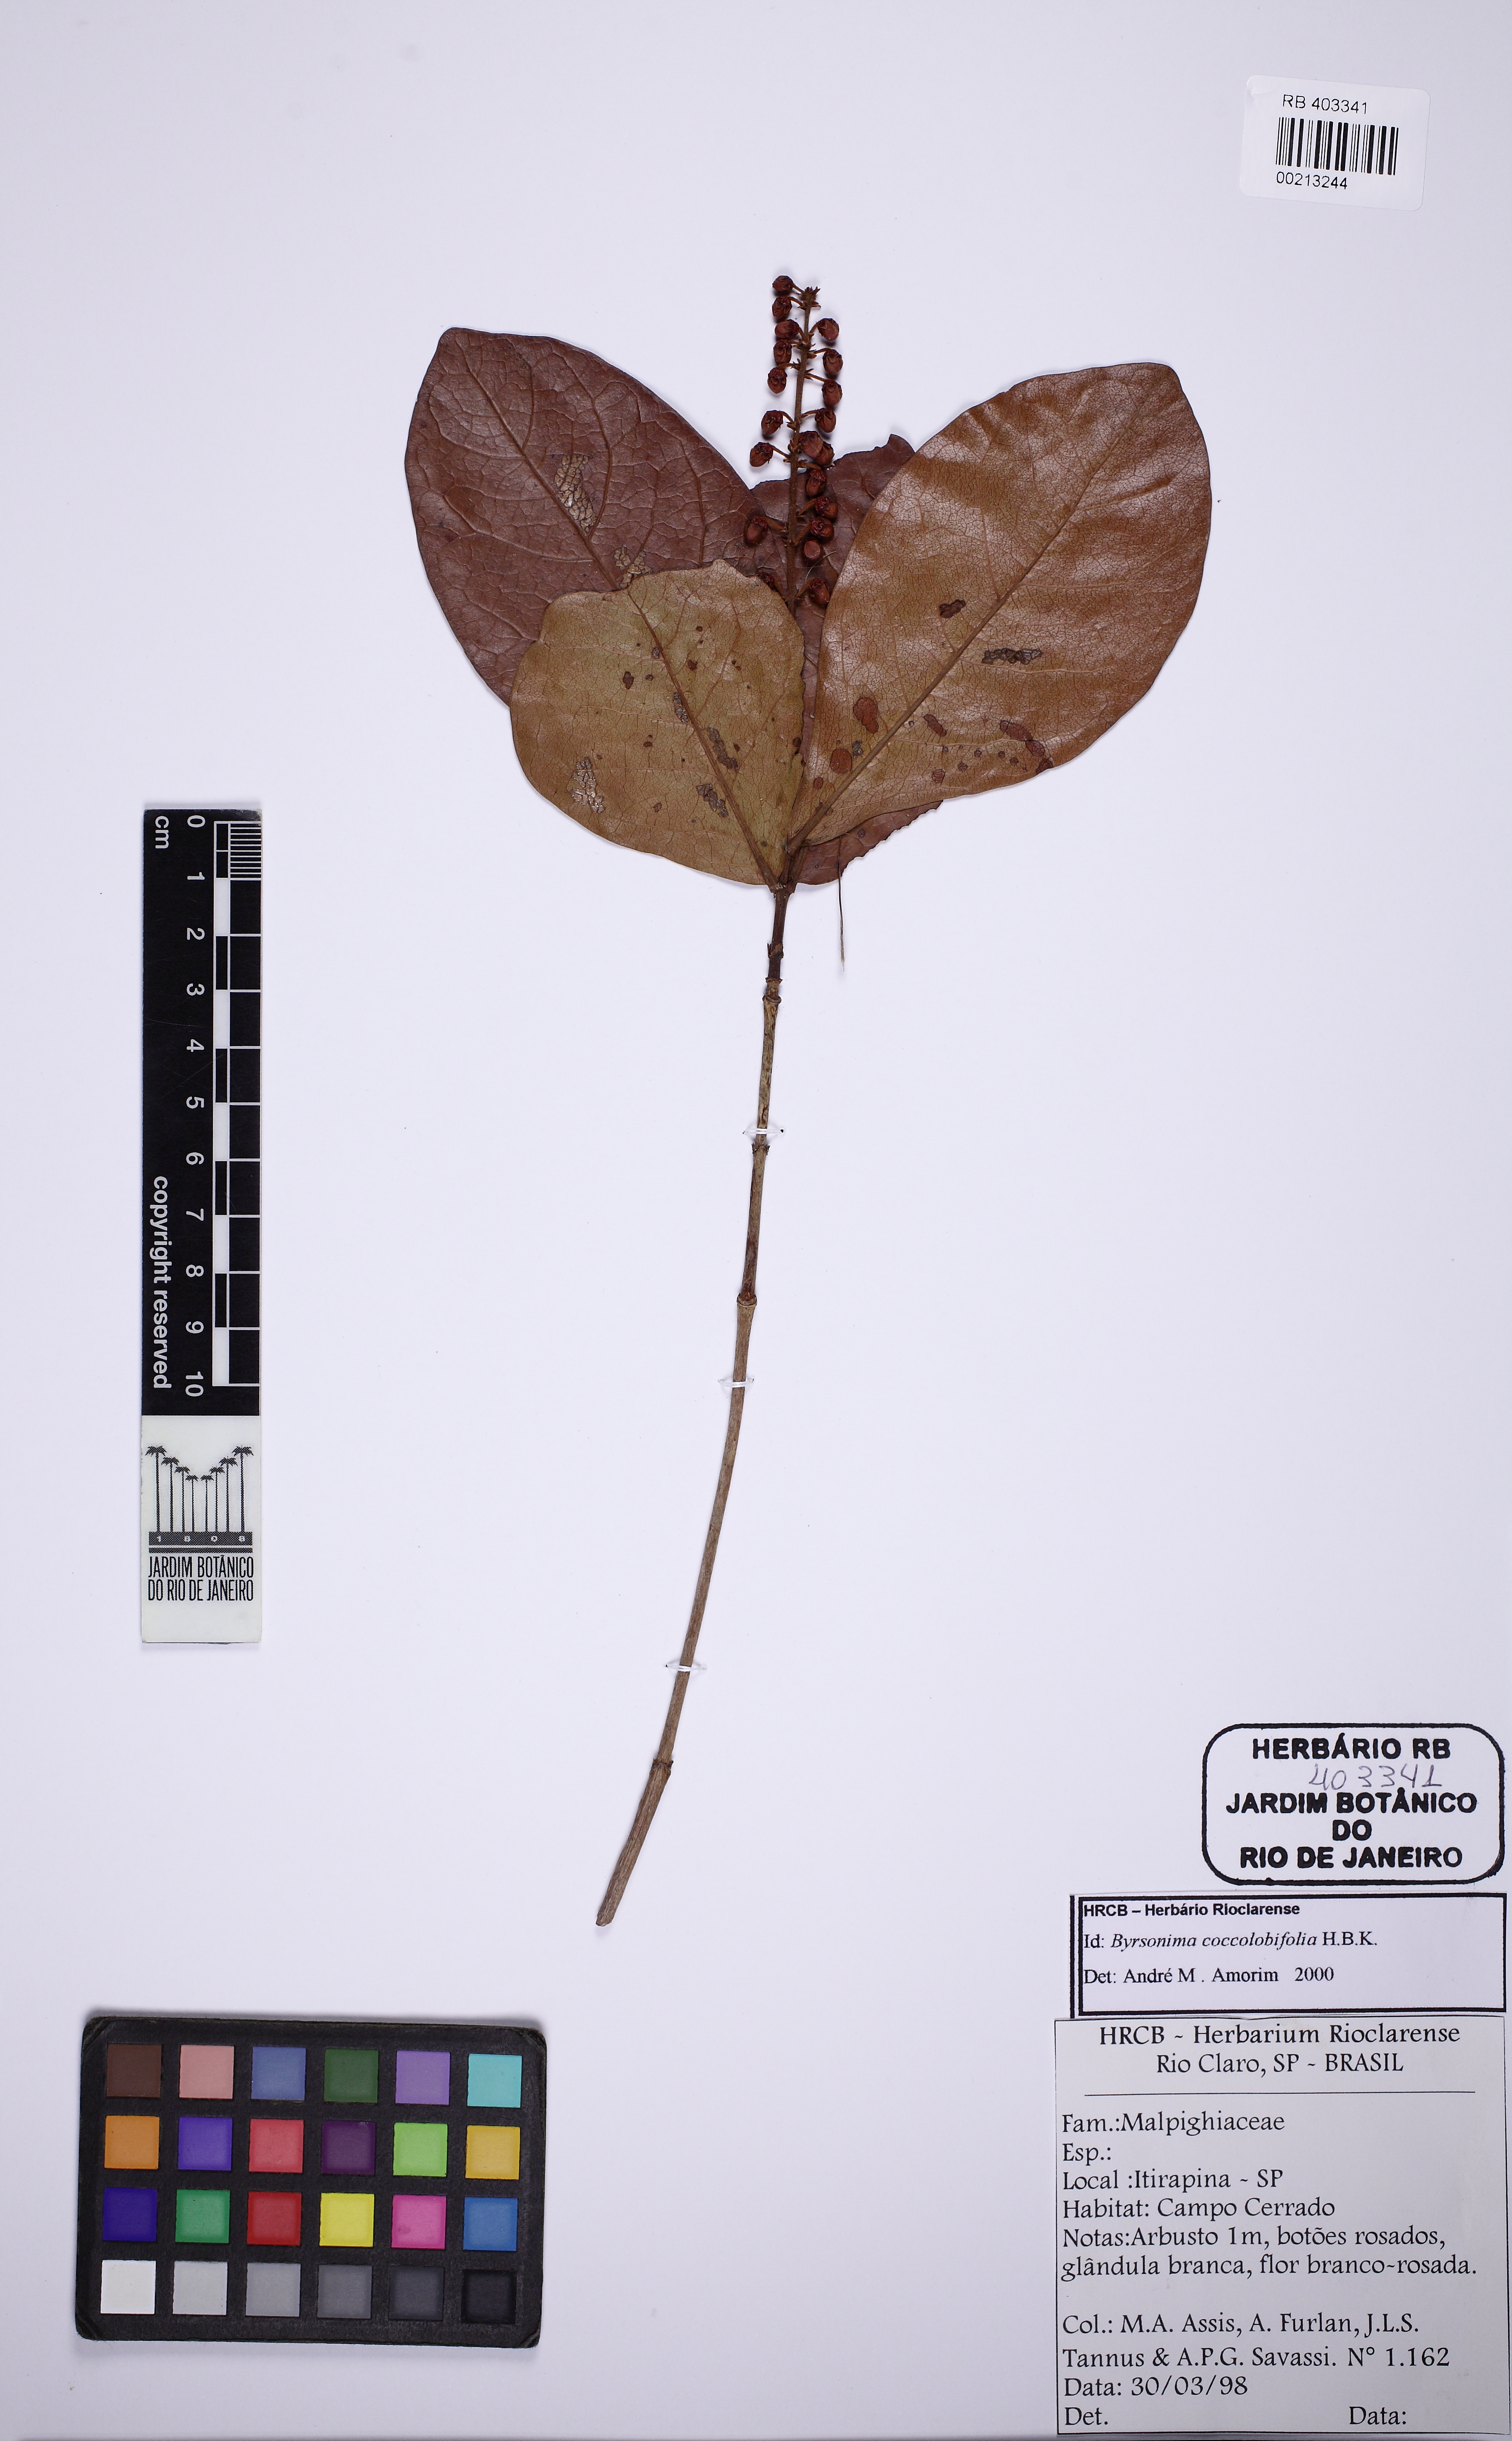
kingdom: Plantae
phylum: Tracheophyta
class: Magnoliopsida
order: Malpighiales
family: Malpighiaceae
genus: Byrsonima
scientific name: Byrsonima coccolobifolia
